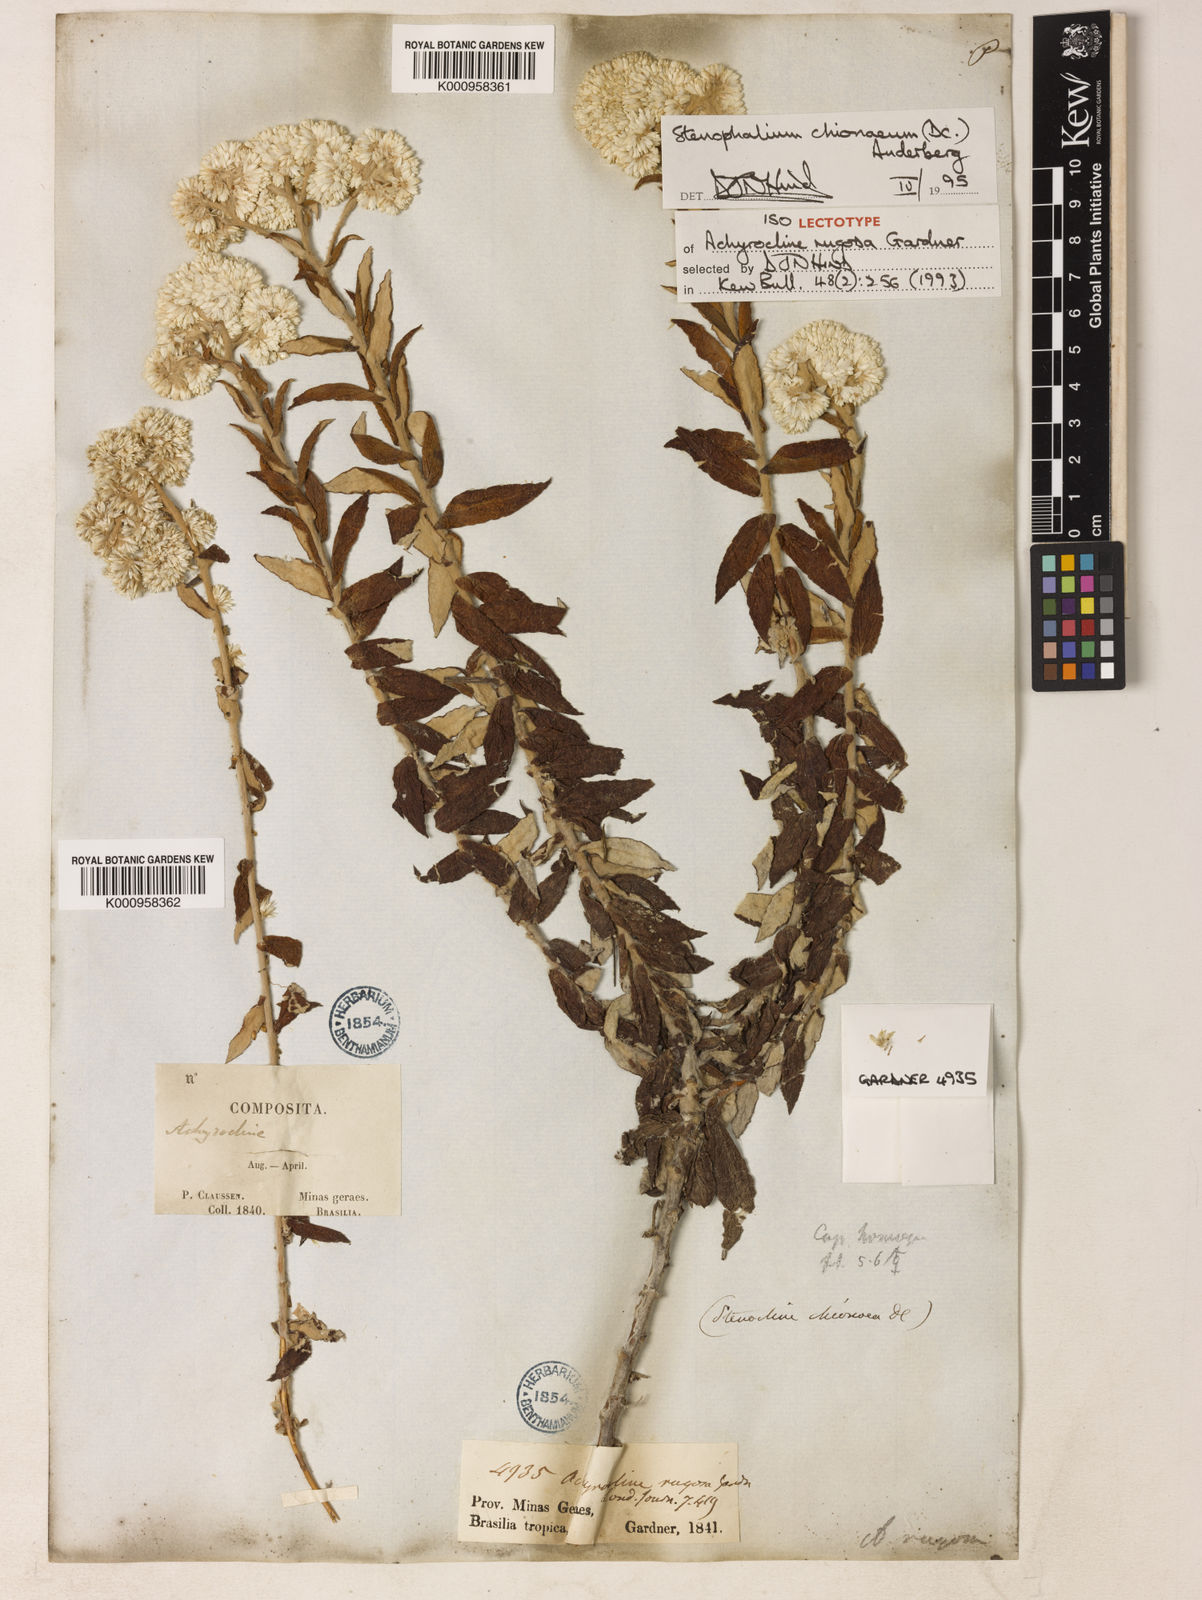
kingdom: Plantae
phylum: Tracheophyta
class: Magnoliopsida
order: Asterales
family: Asteraceae
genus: Achyrocline
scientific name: Achyrocline chionaea
